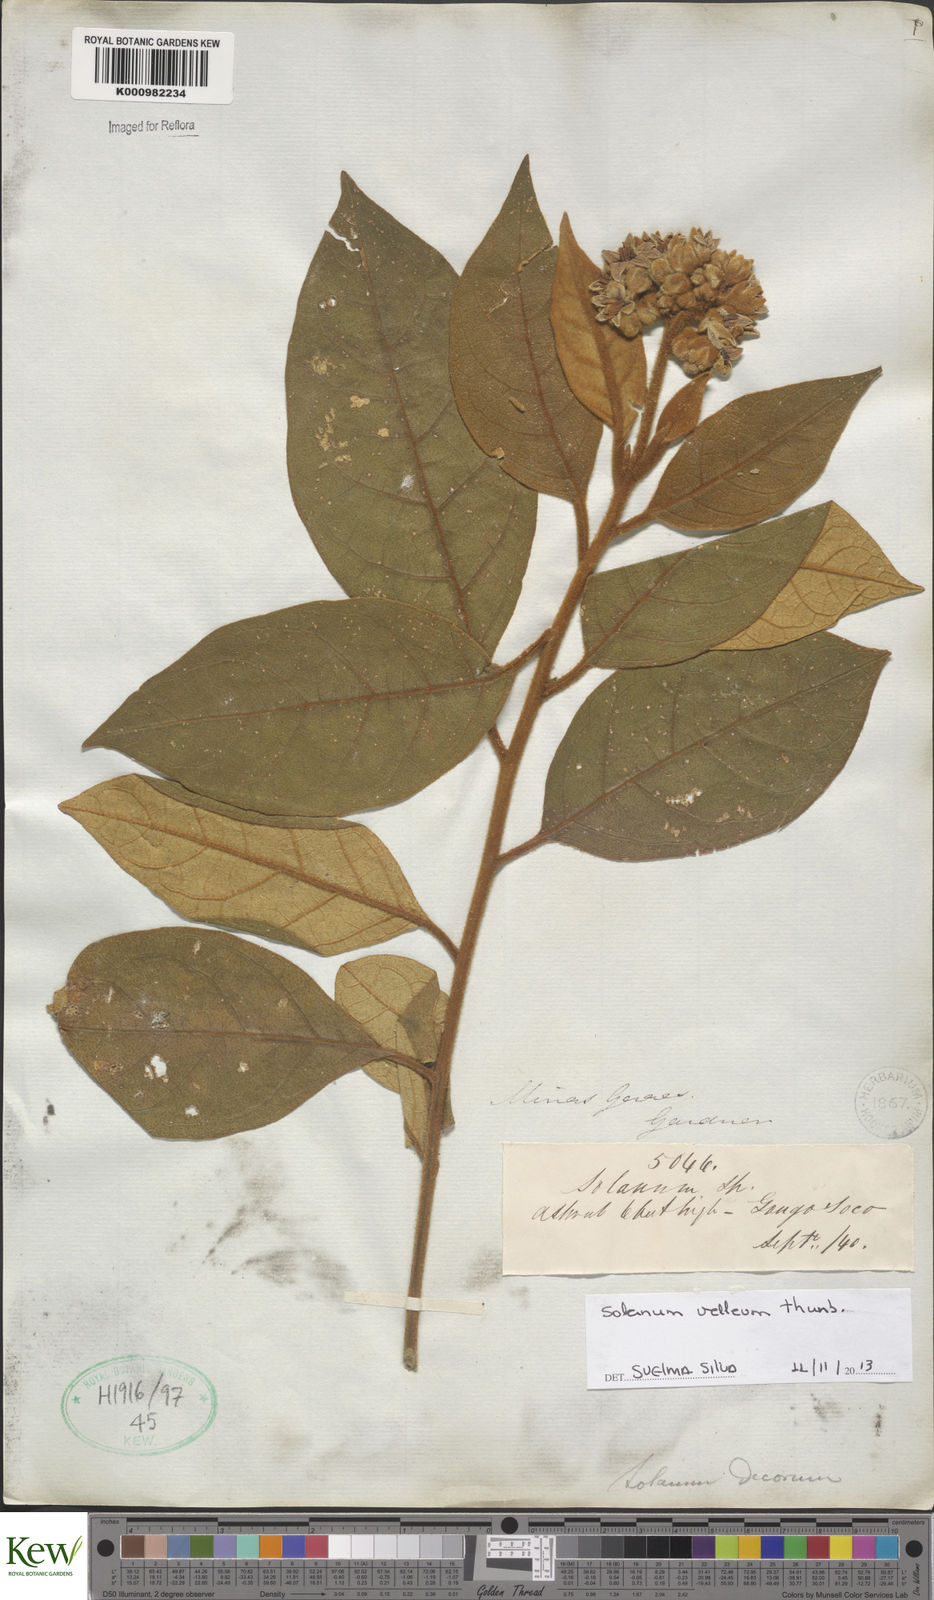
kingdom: Plantae
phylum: Tracheophyta
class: Magnoliopsida
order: Solanales
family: Solanaceae
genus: Solanum
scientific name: Solanum velleum
